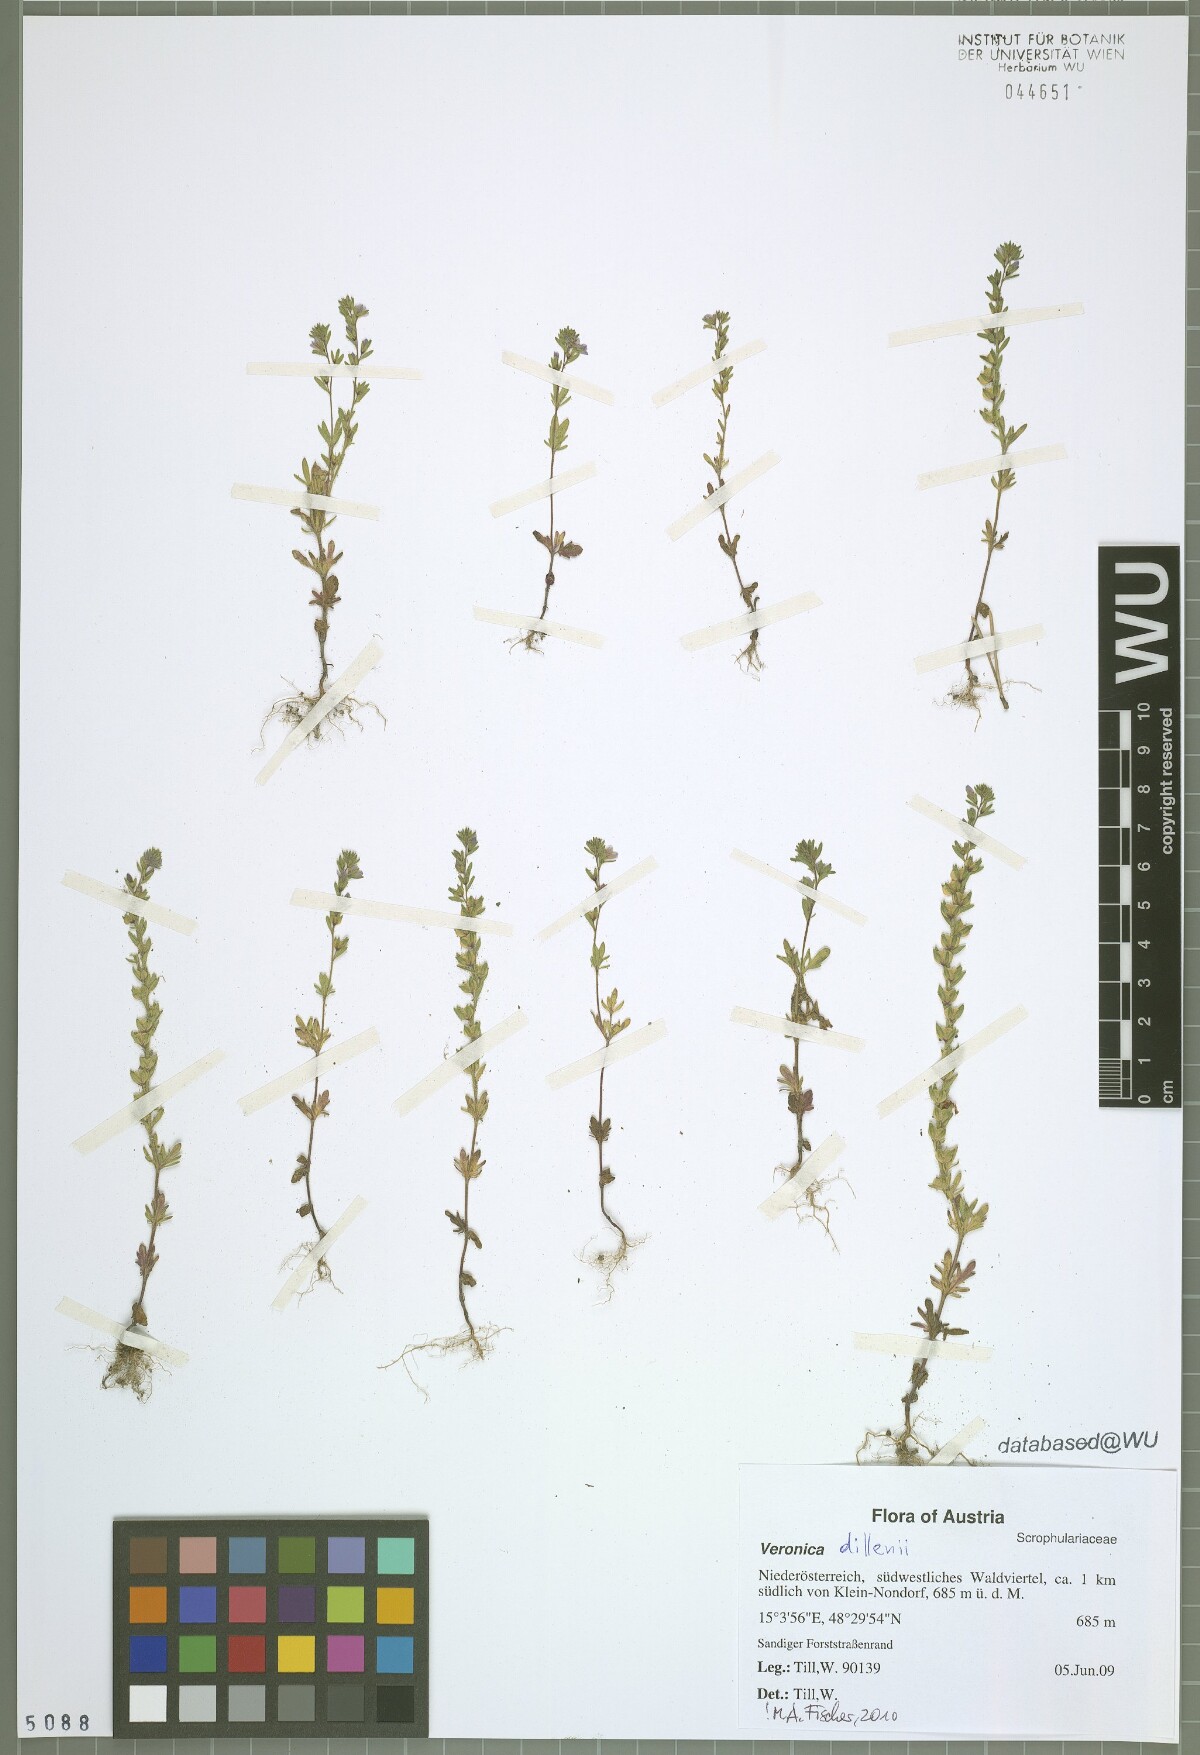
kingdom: Plantae
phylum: Tracheophyta
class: Magnoliopsida
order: Lamiales
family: Plantaginaceae
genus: Veronica
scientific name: Veronica dillenii
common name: Dillenius' speedwell
